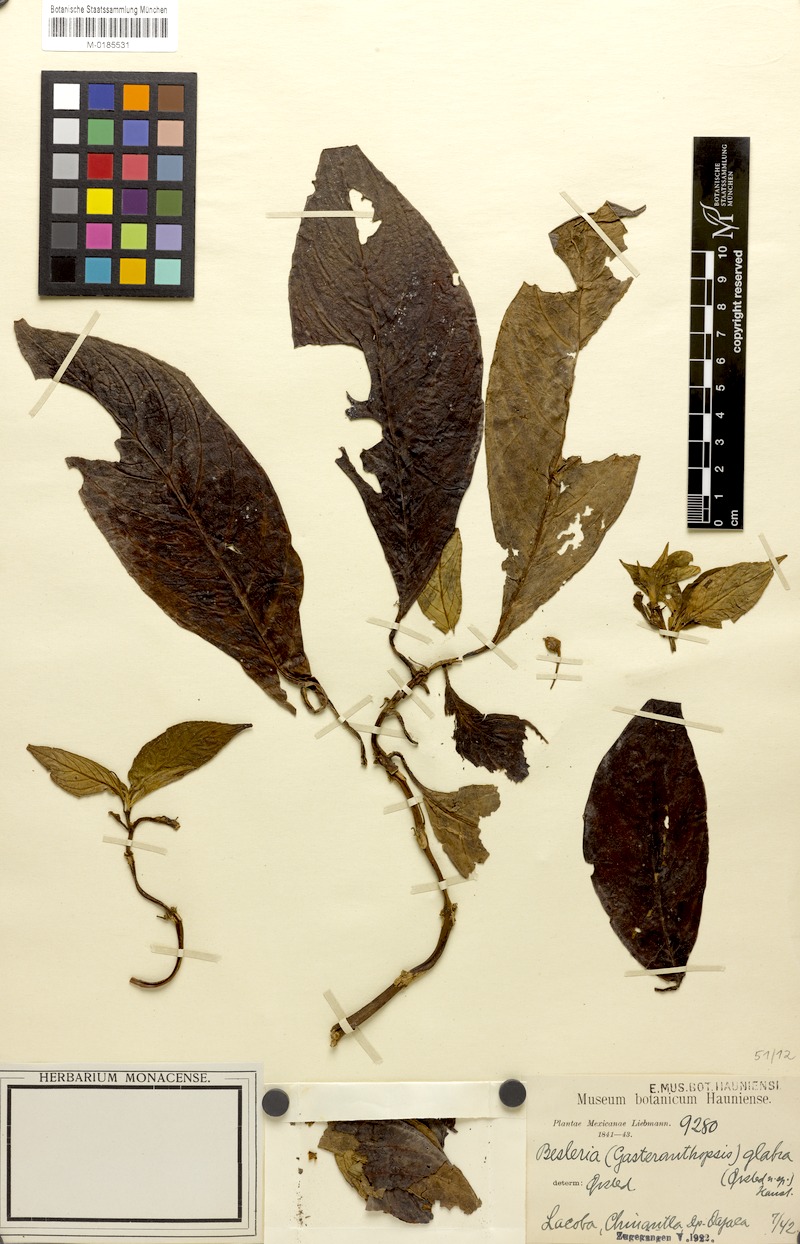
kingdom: Plantae
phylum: Tracheophyta
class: Magnoliopsida
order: Lamiales
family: Gesneriaceae
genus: Besleria
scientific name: Besleria glabra
